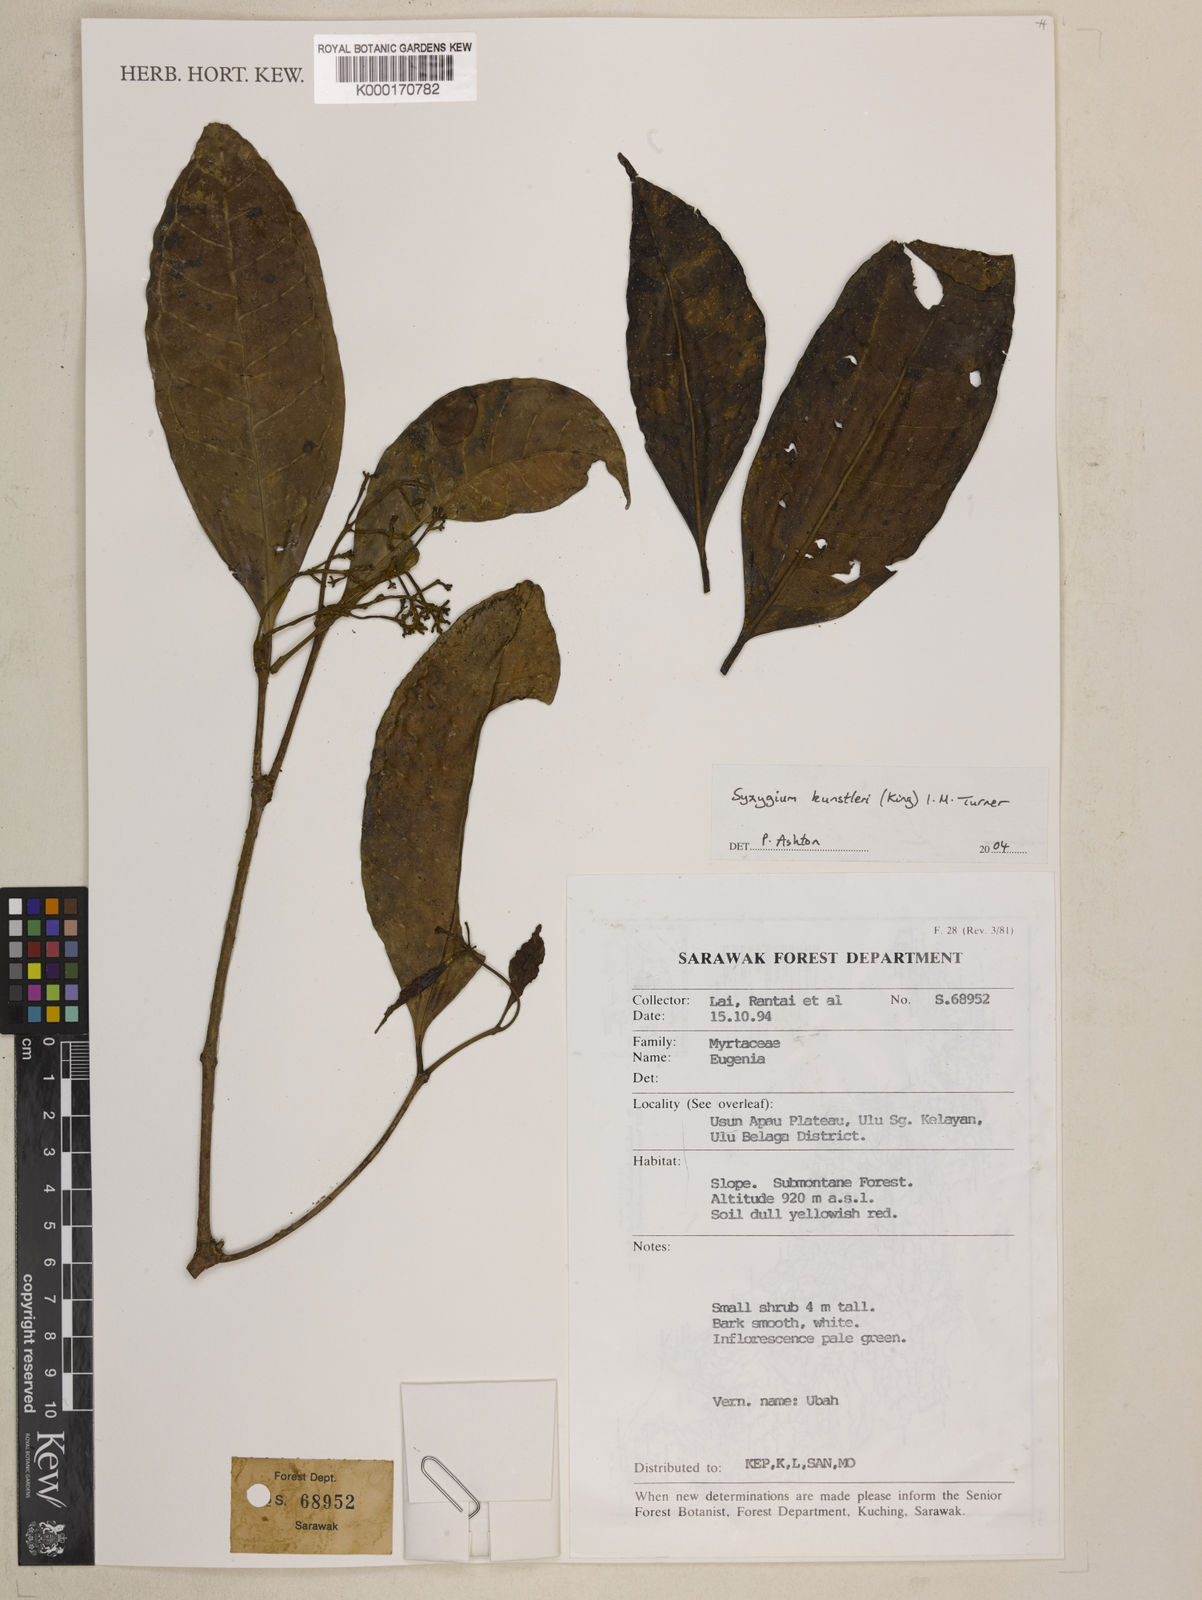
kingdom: Plantae
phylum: Tracheophyta
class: Magnoliopsida
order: Myrtales
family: Myrtaceae
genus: Syzygium
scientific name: Syzygium
